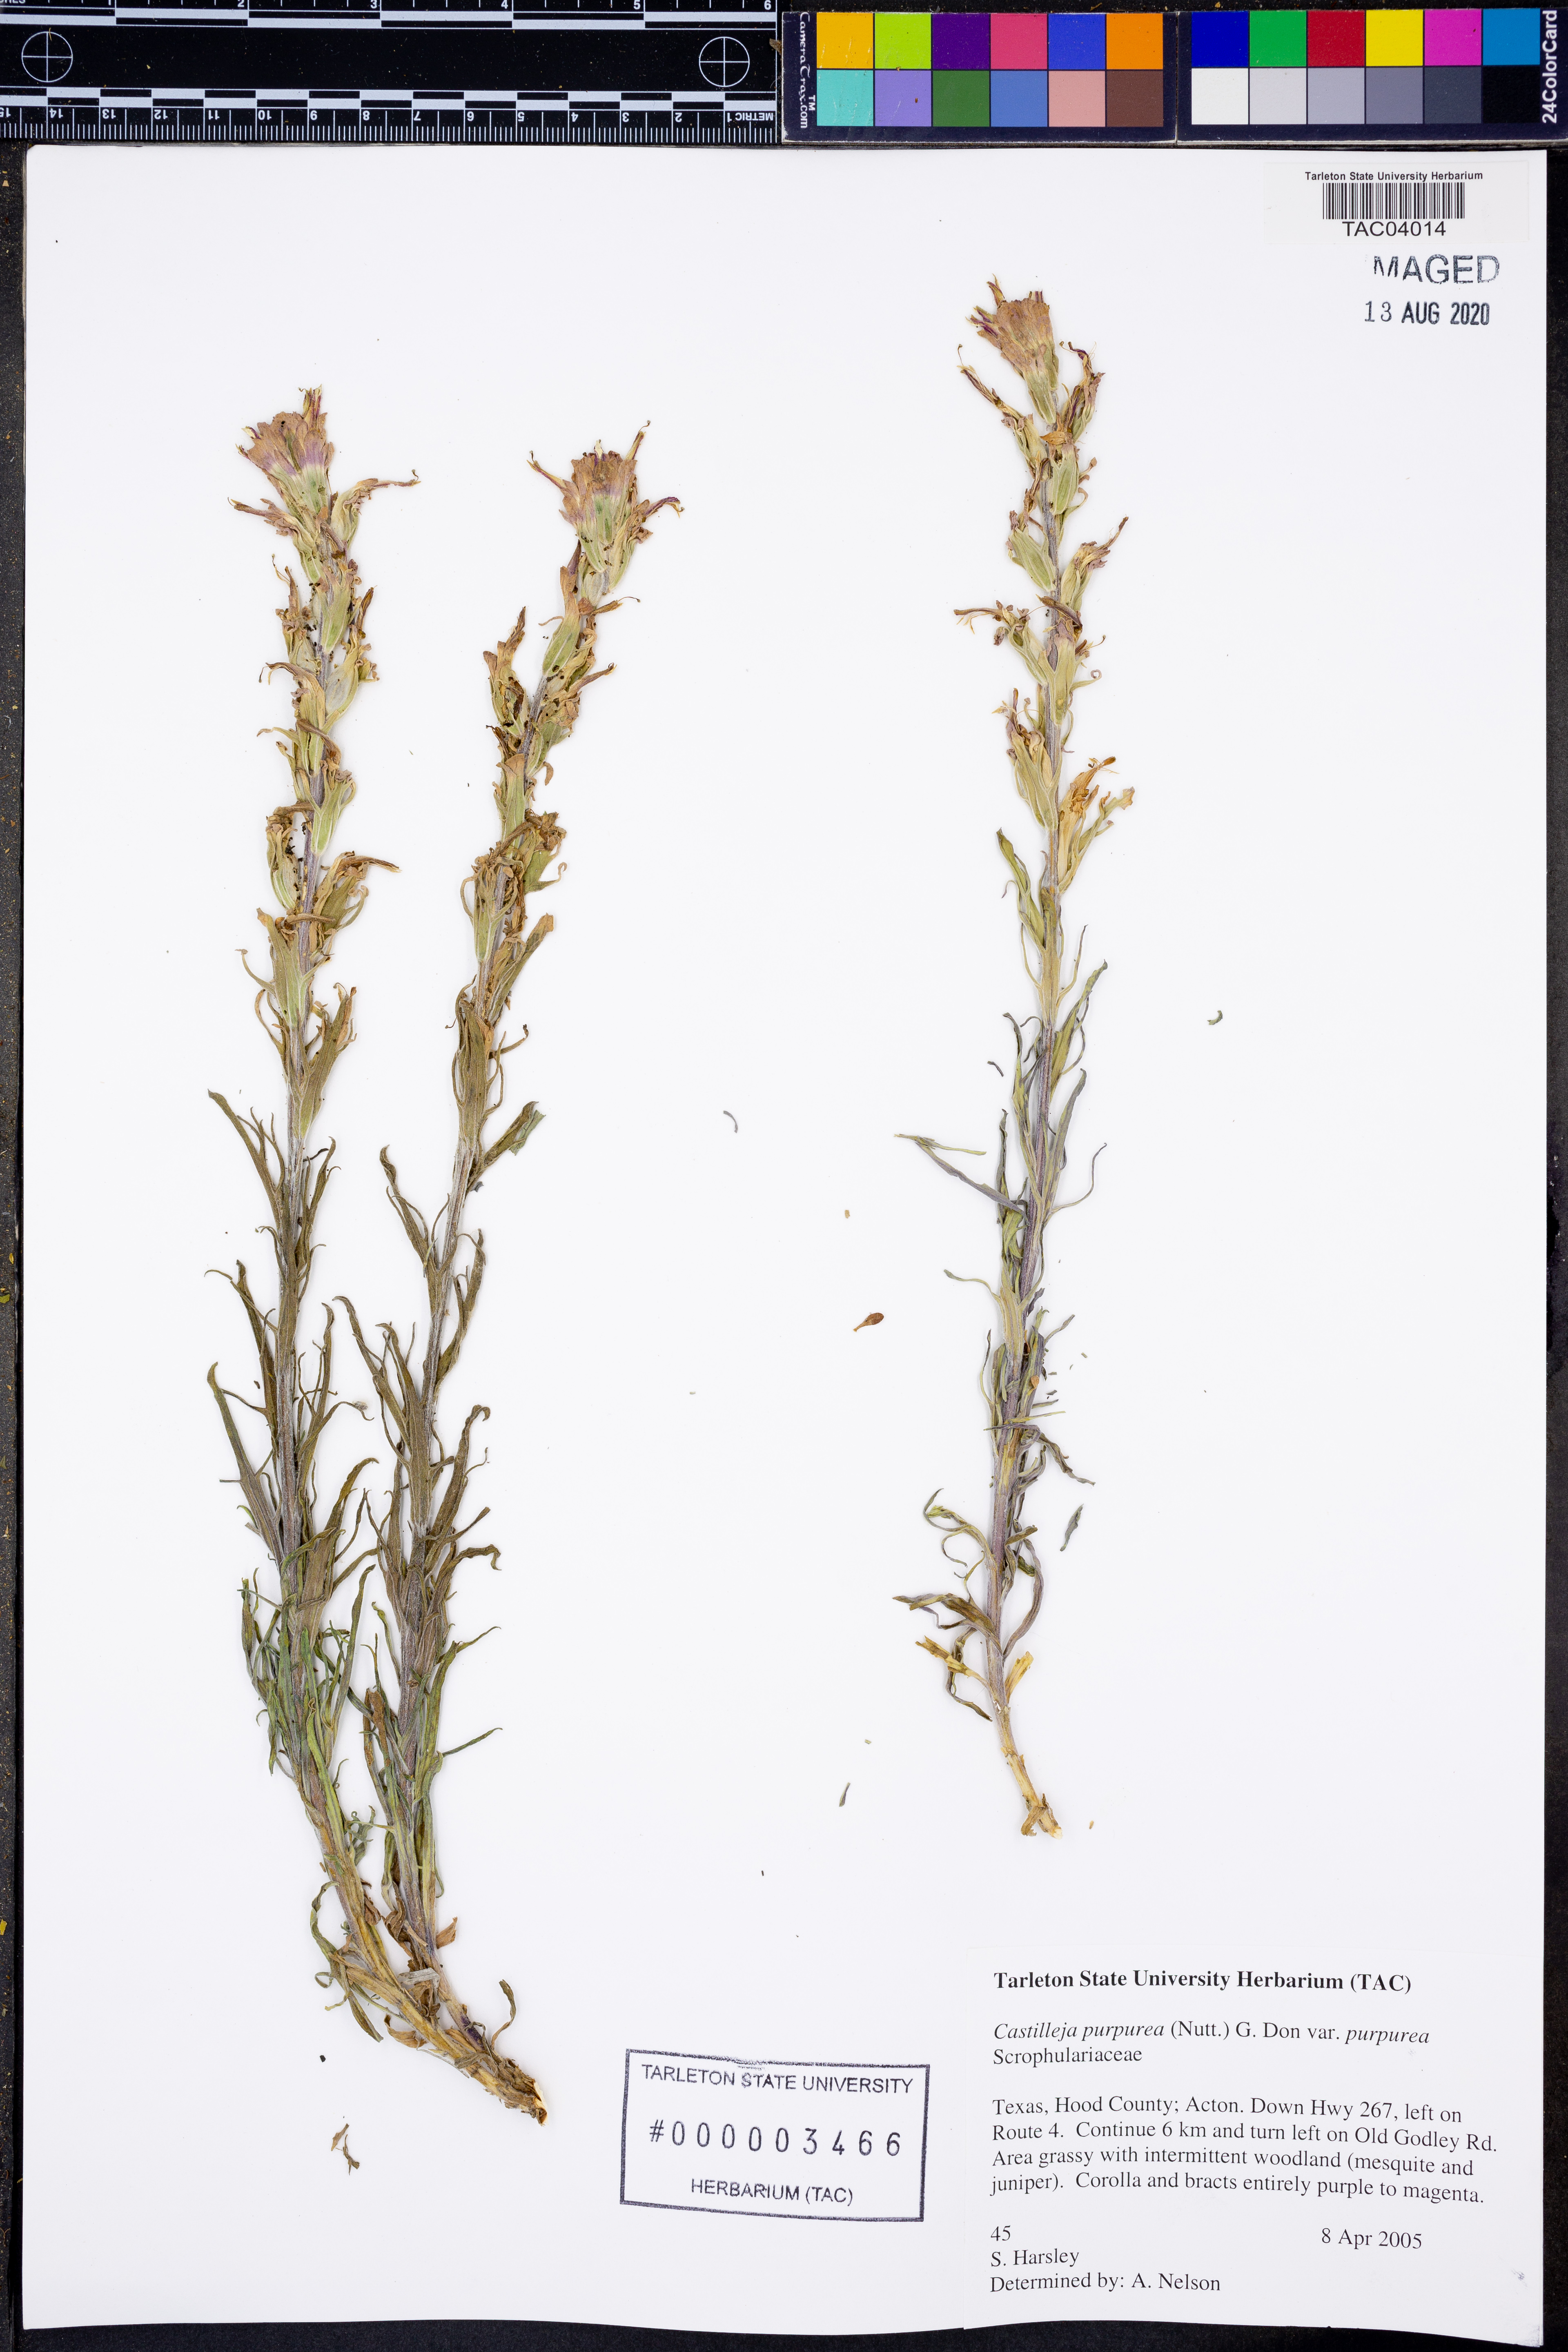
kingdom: Plantae
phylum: Tracheophyta
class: Magnoliopsida
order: Lamiales
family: Orobanchaceae
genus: Castilleja
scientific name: Castilleja purpurea
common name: Plains paintbrush
